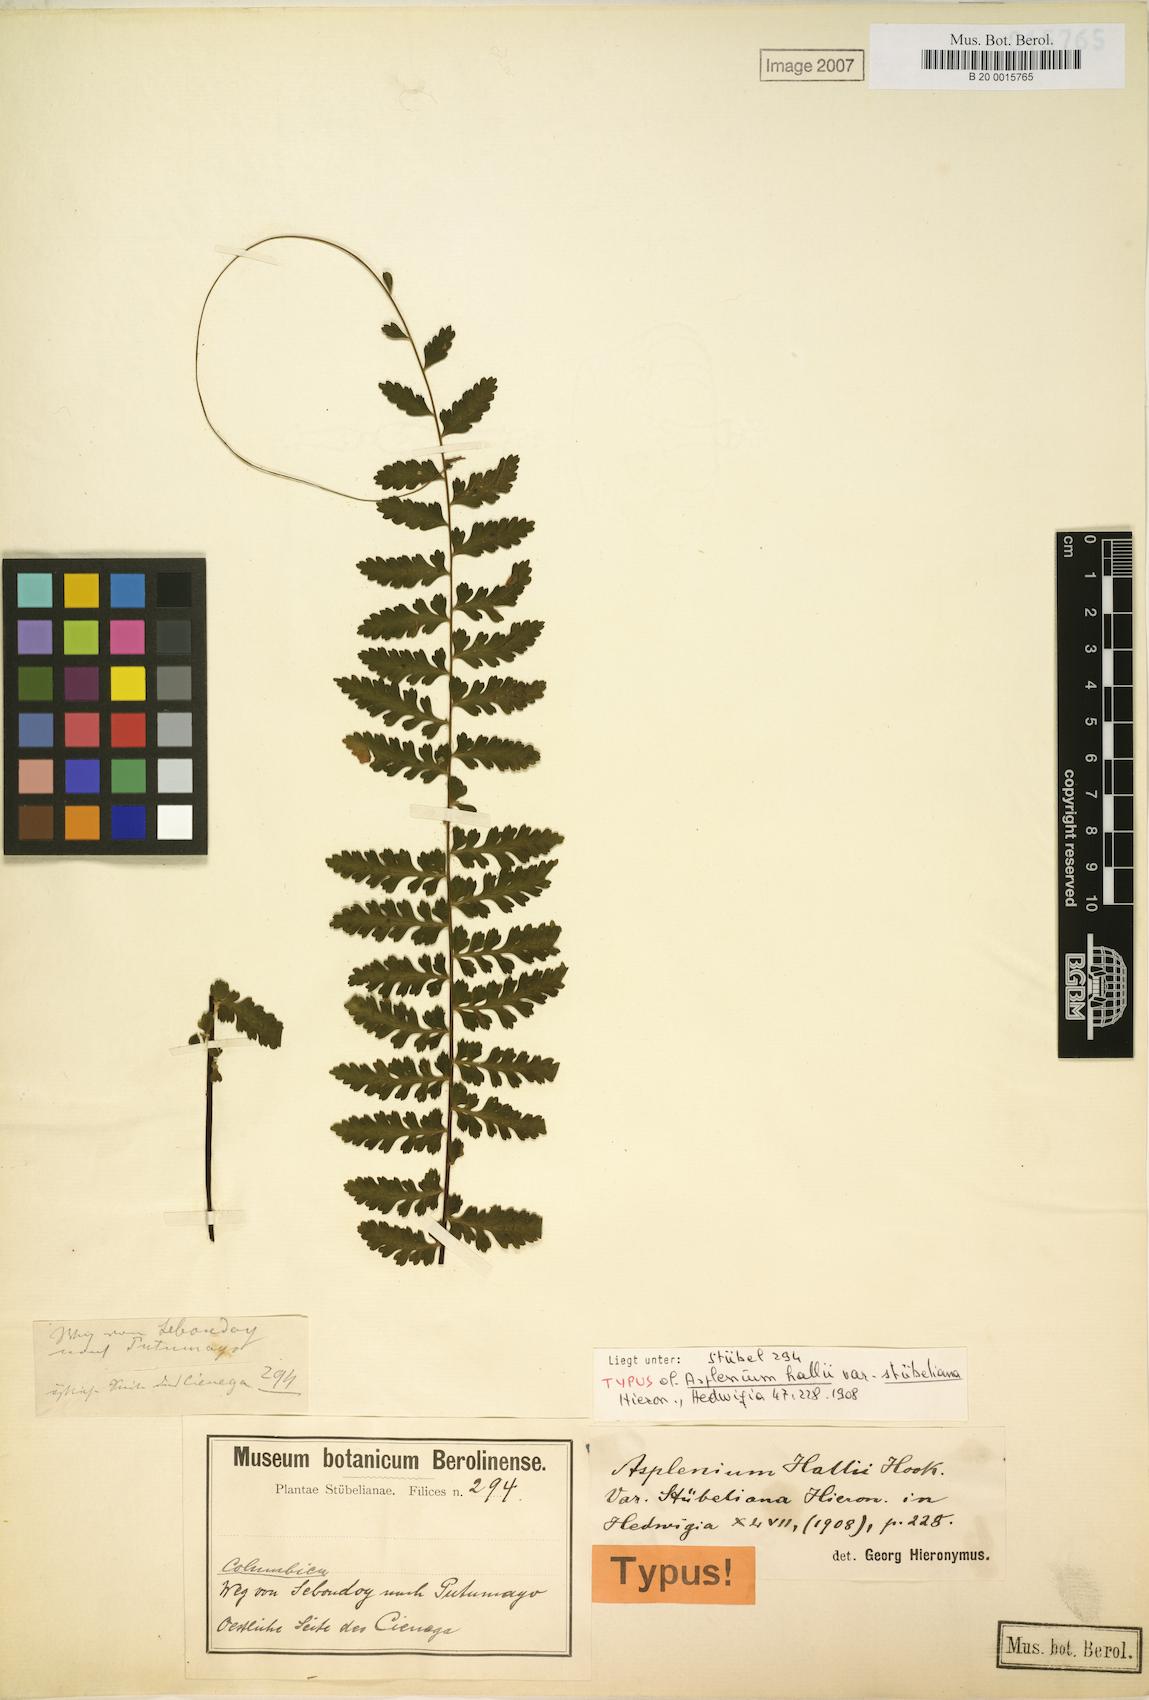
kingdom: Plantae
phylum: Tracheophyta
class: Polypodiopsida
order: Polypodiales
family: Aspleniaceae
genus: Asplenium
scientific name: Asplenium hallii
